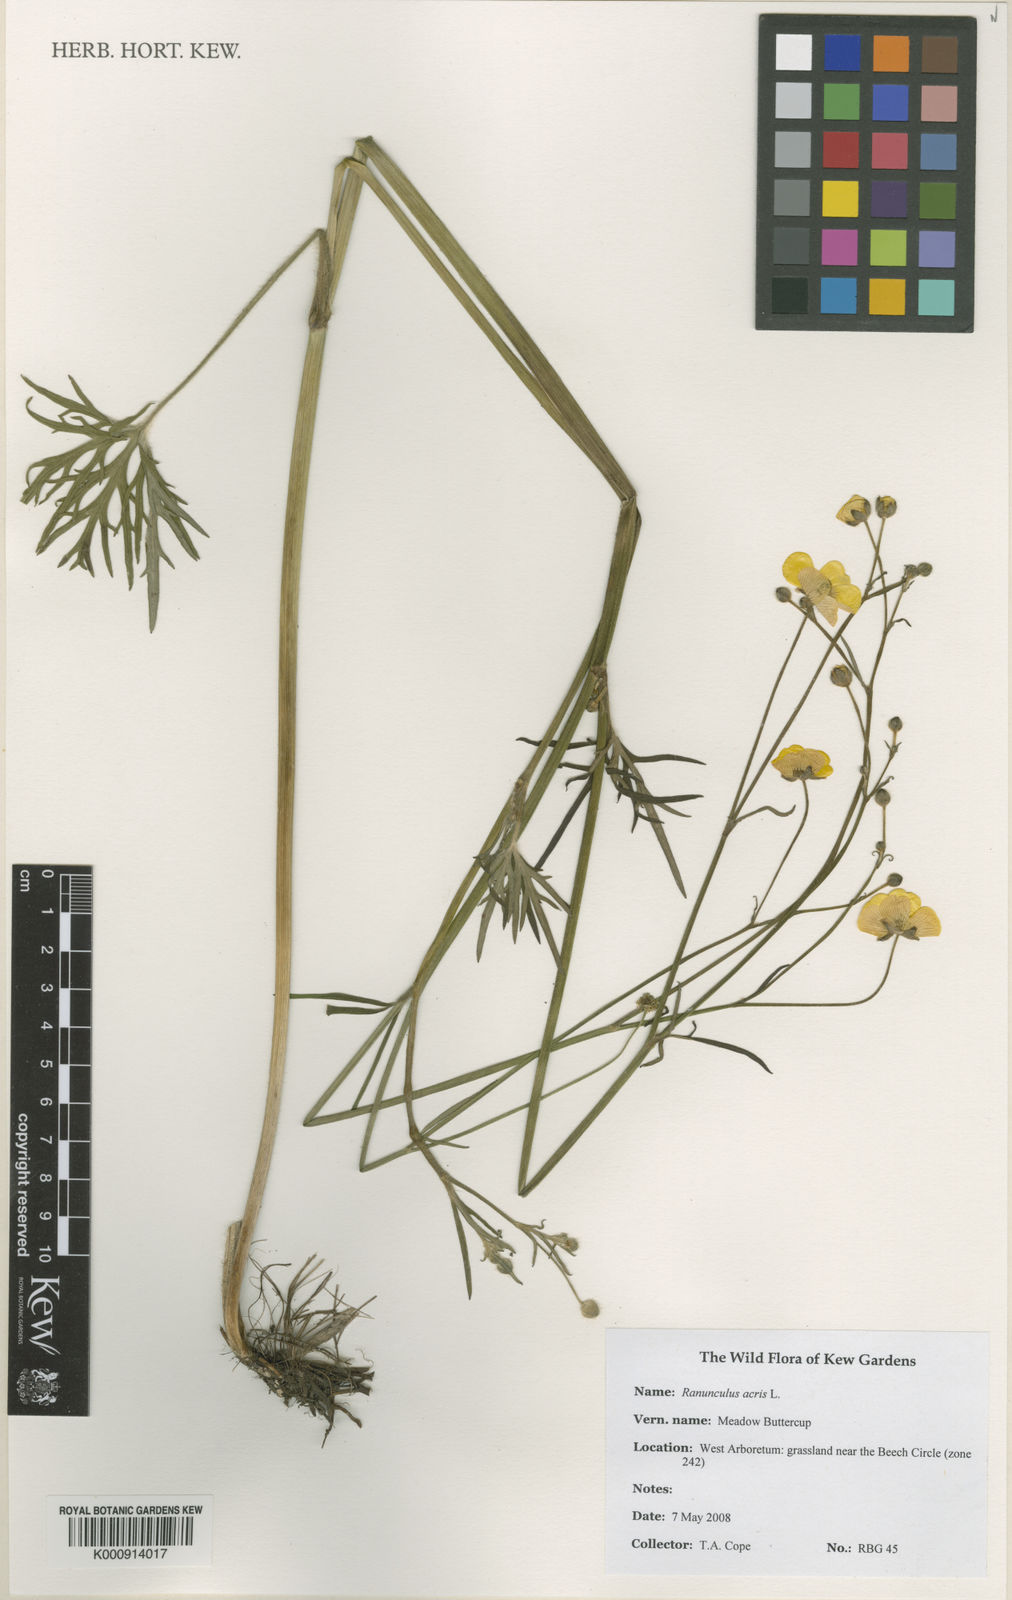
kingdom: Plantae
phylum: Tracheophyta
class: Magnoliopsida
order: Ranunculales
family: Ranunculaceae
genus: Ranunculus
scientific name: Ranunculus acris
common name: Meadow buttercup
